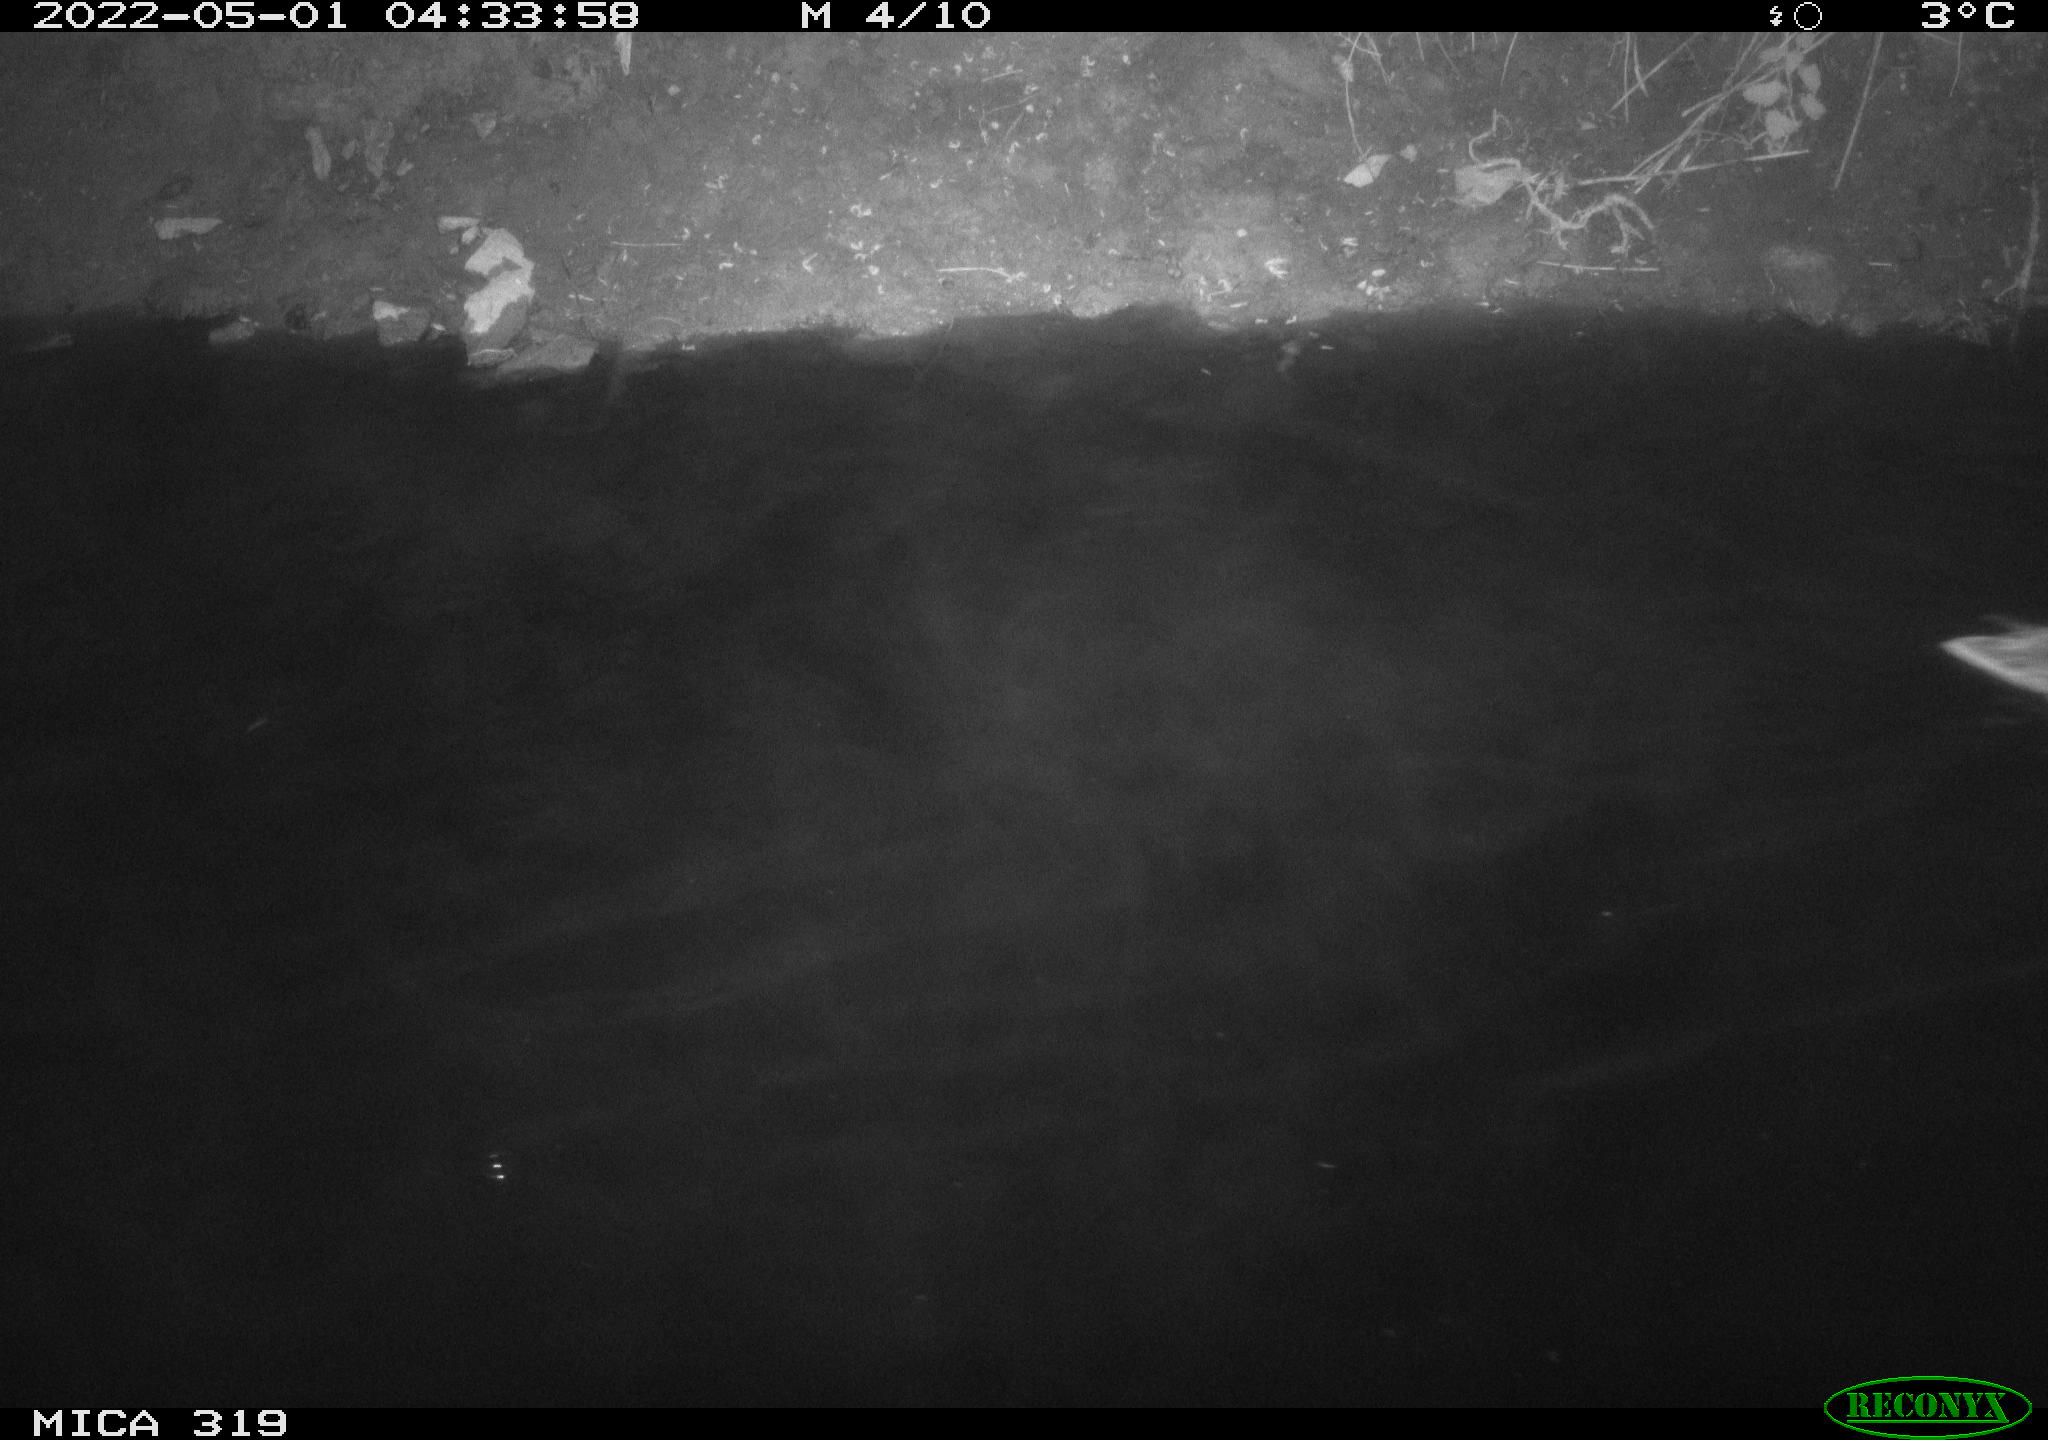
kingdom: Animalia
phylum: Chordata
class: Aves
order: Anseriformes
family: Anatidae
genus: Anas
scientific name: Anas platyrhynchos
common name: Mallard
